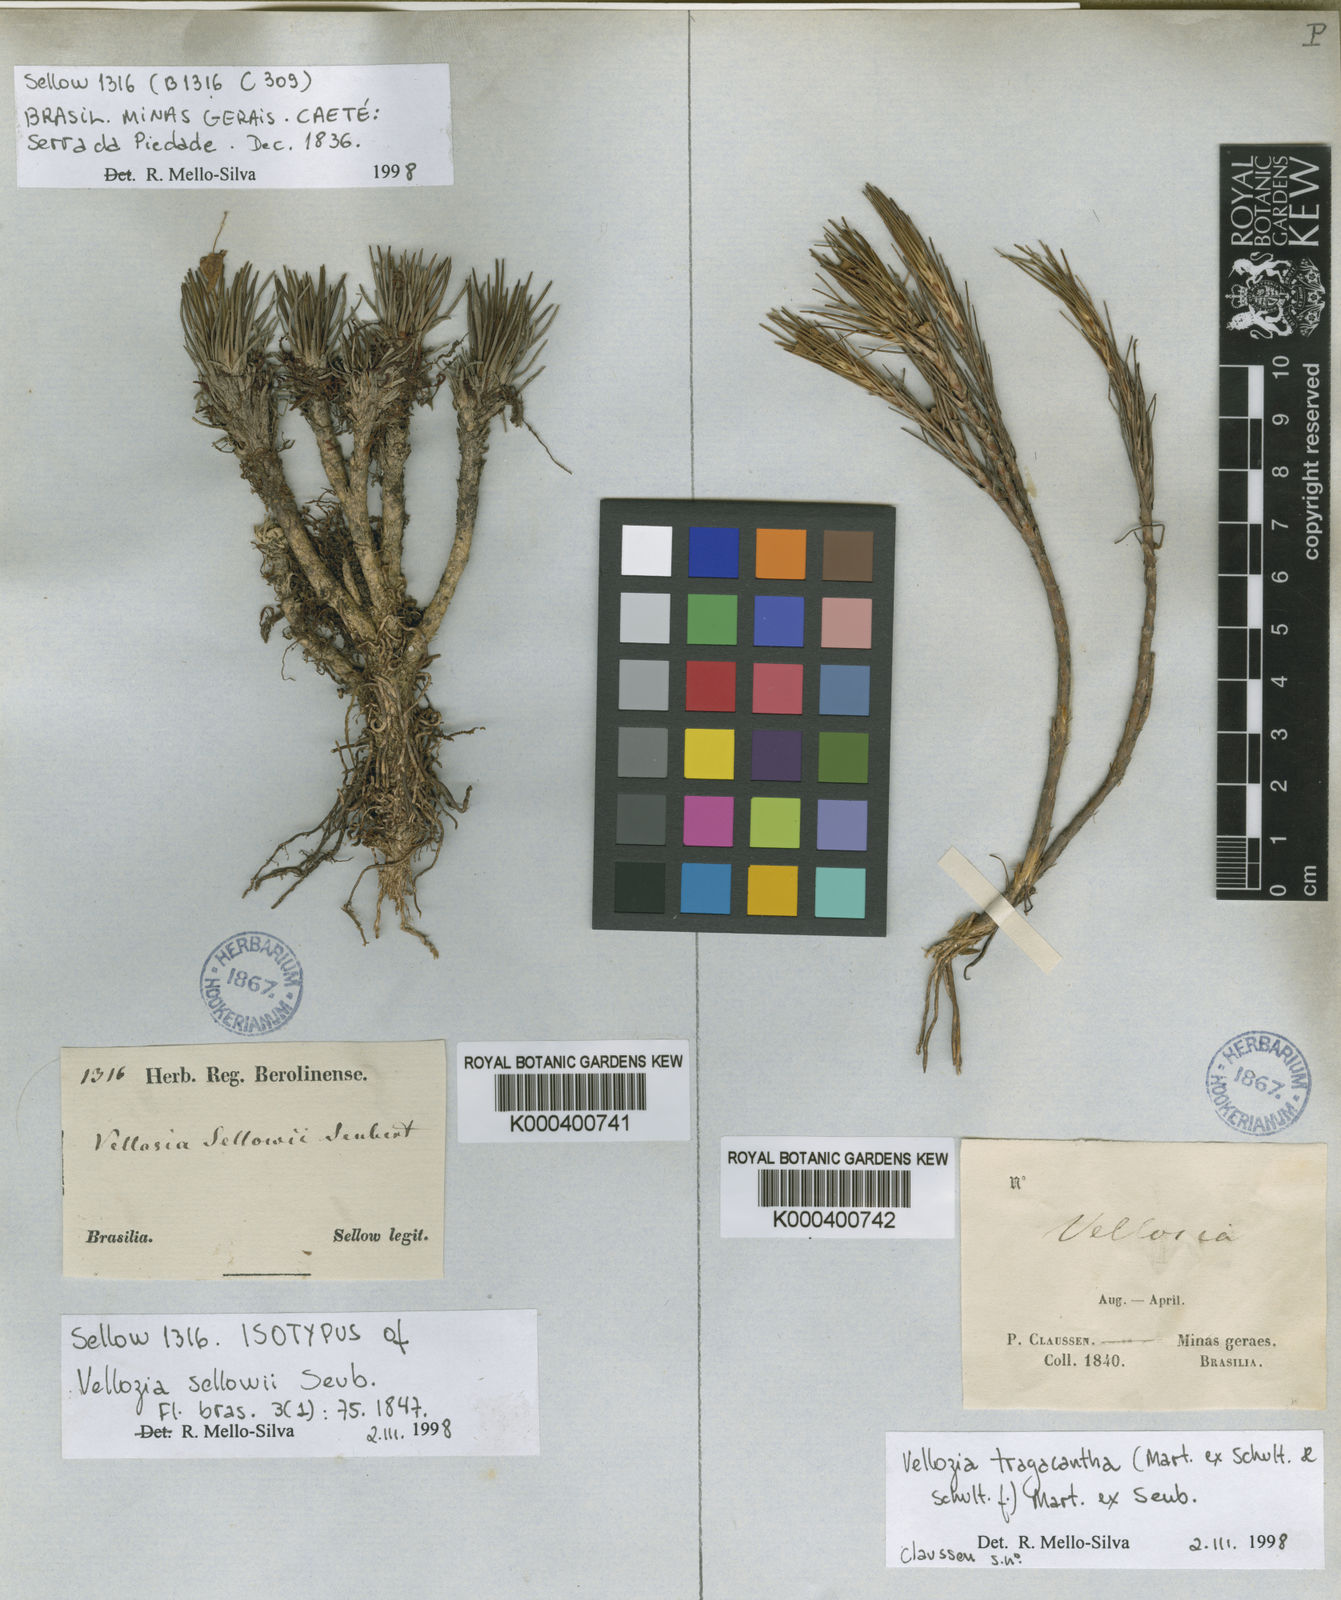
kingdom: Plantae
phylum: Tracheophyta
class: Liliopsida
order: Pandanales
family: Velloziaceae
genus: Vellozia
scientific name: Vellozia sellowii
